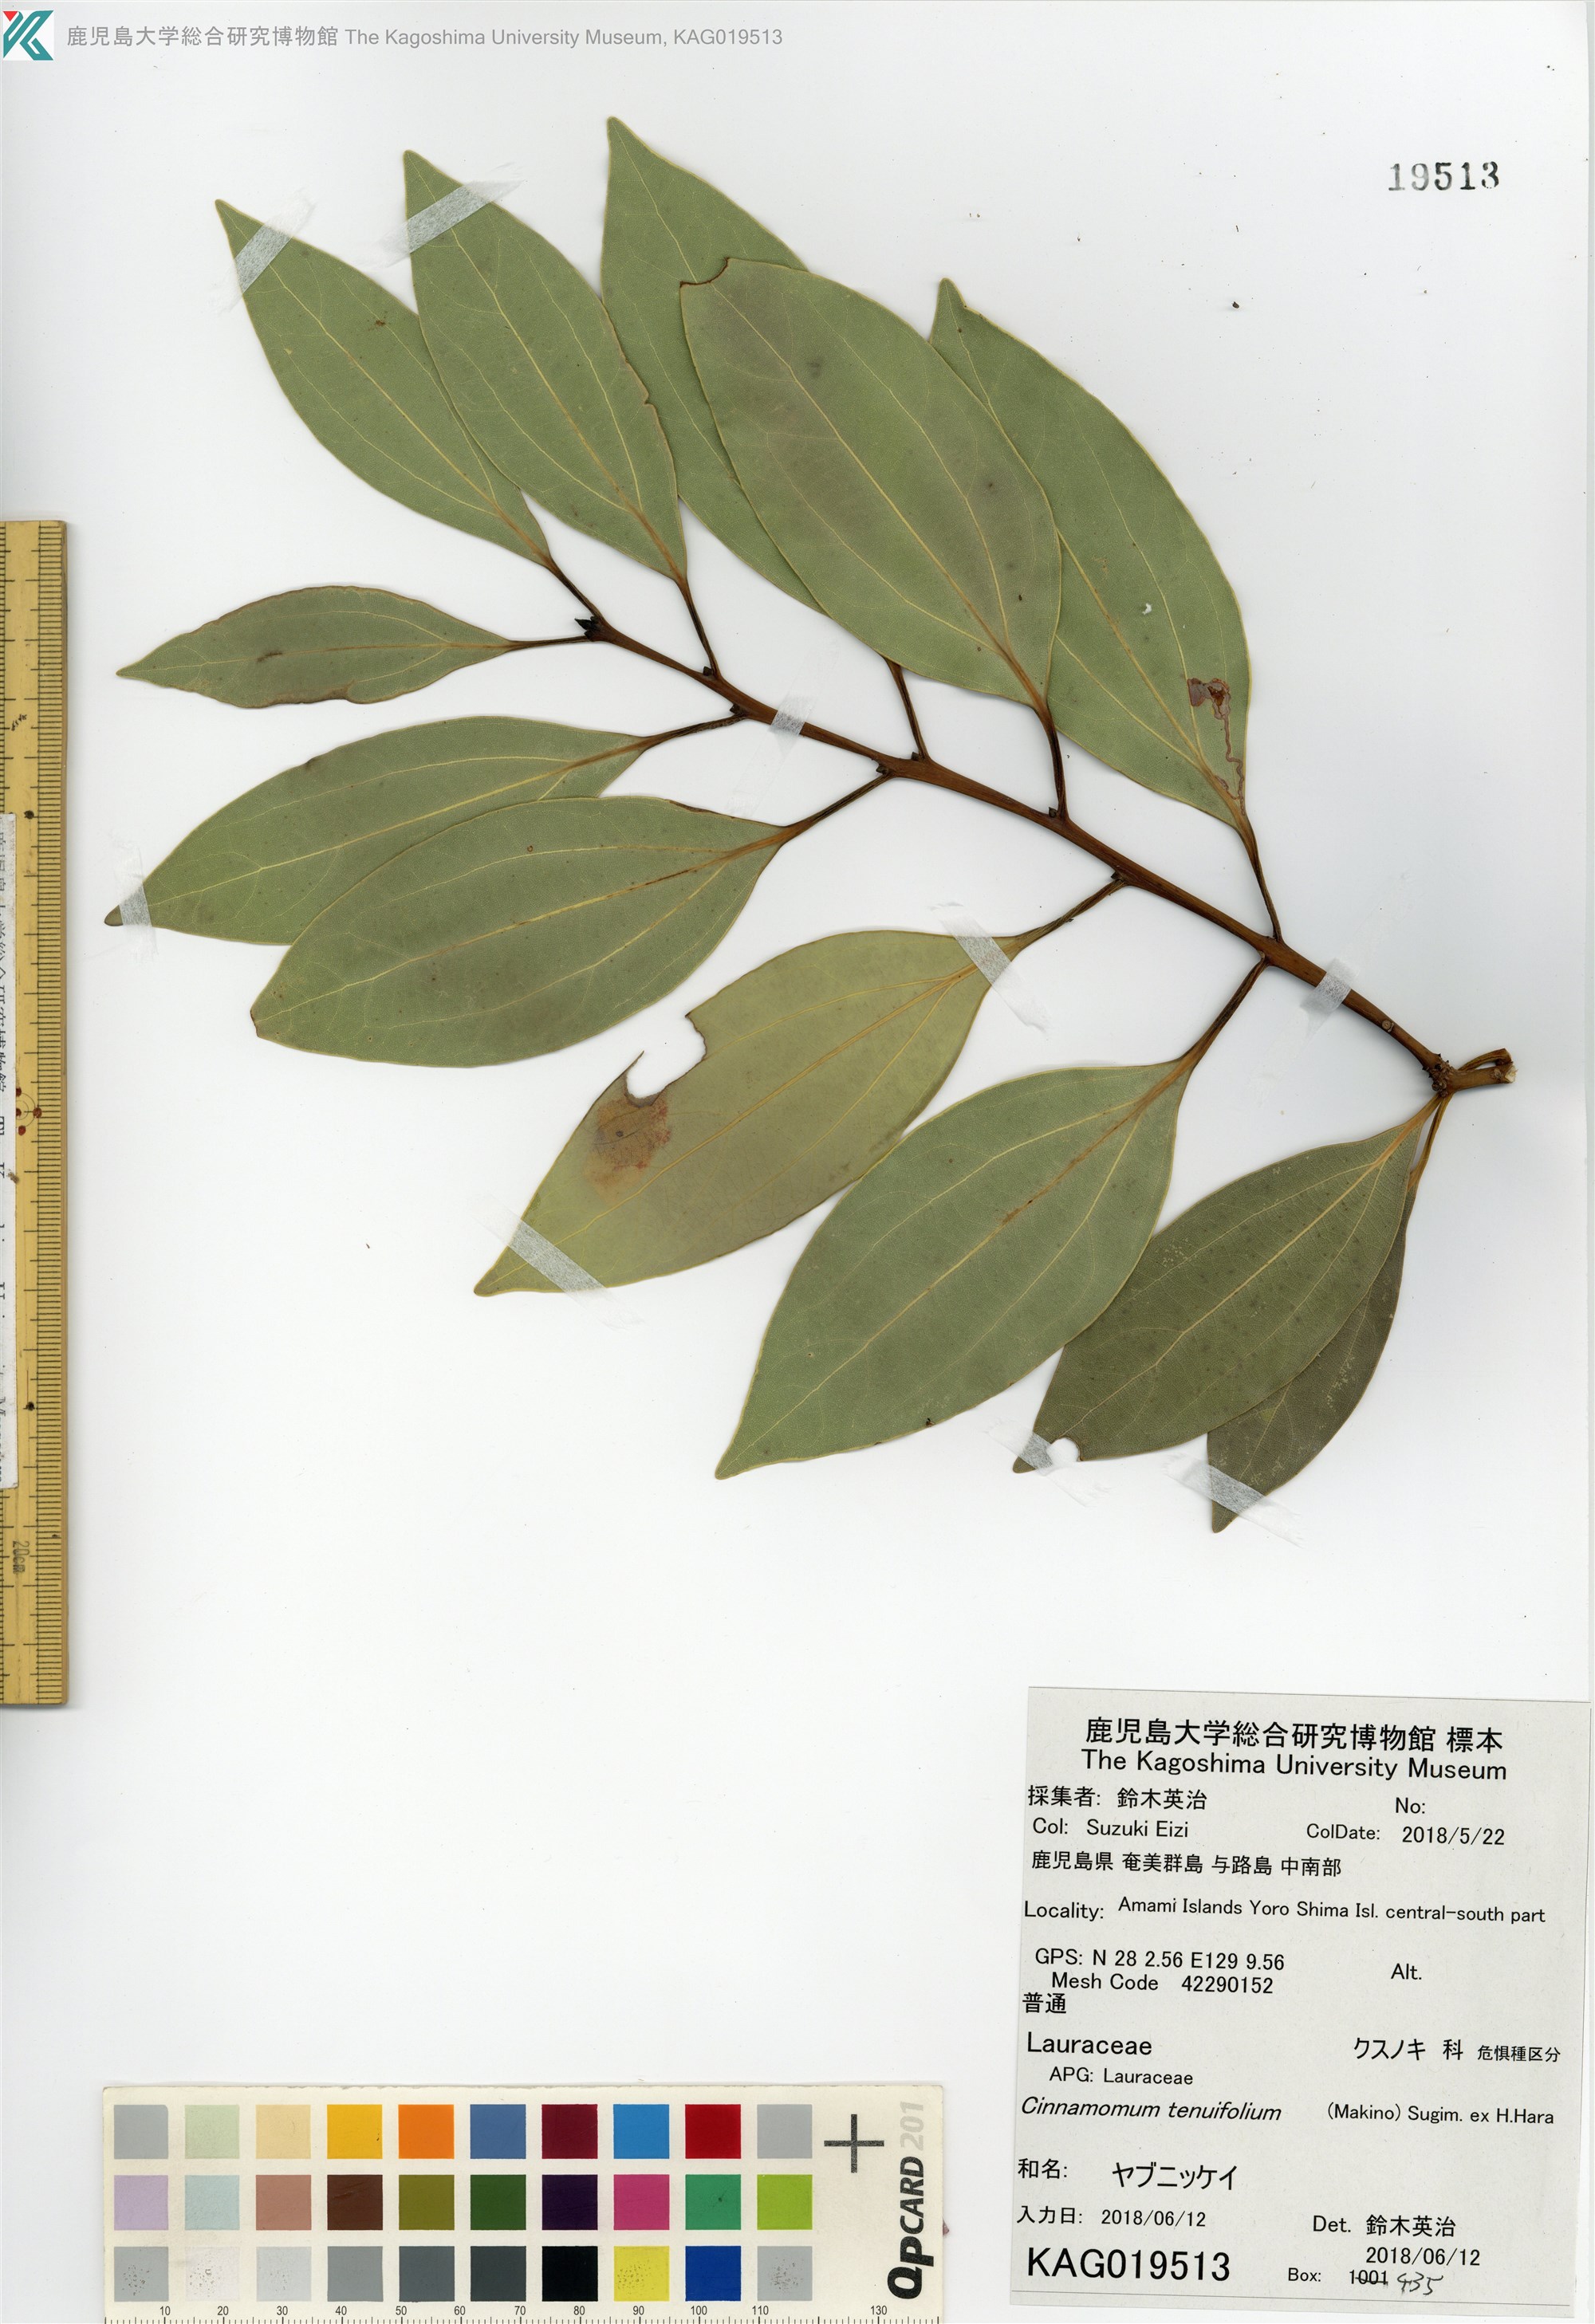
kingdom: Plantae
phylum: Tracheophyta
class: Magnoliopsida
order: Laurales
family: Lauraceae
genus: Cinnamomum
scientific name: Cinnamomum chekiangense
